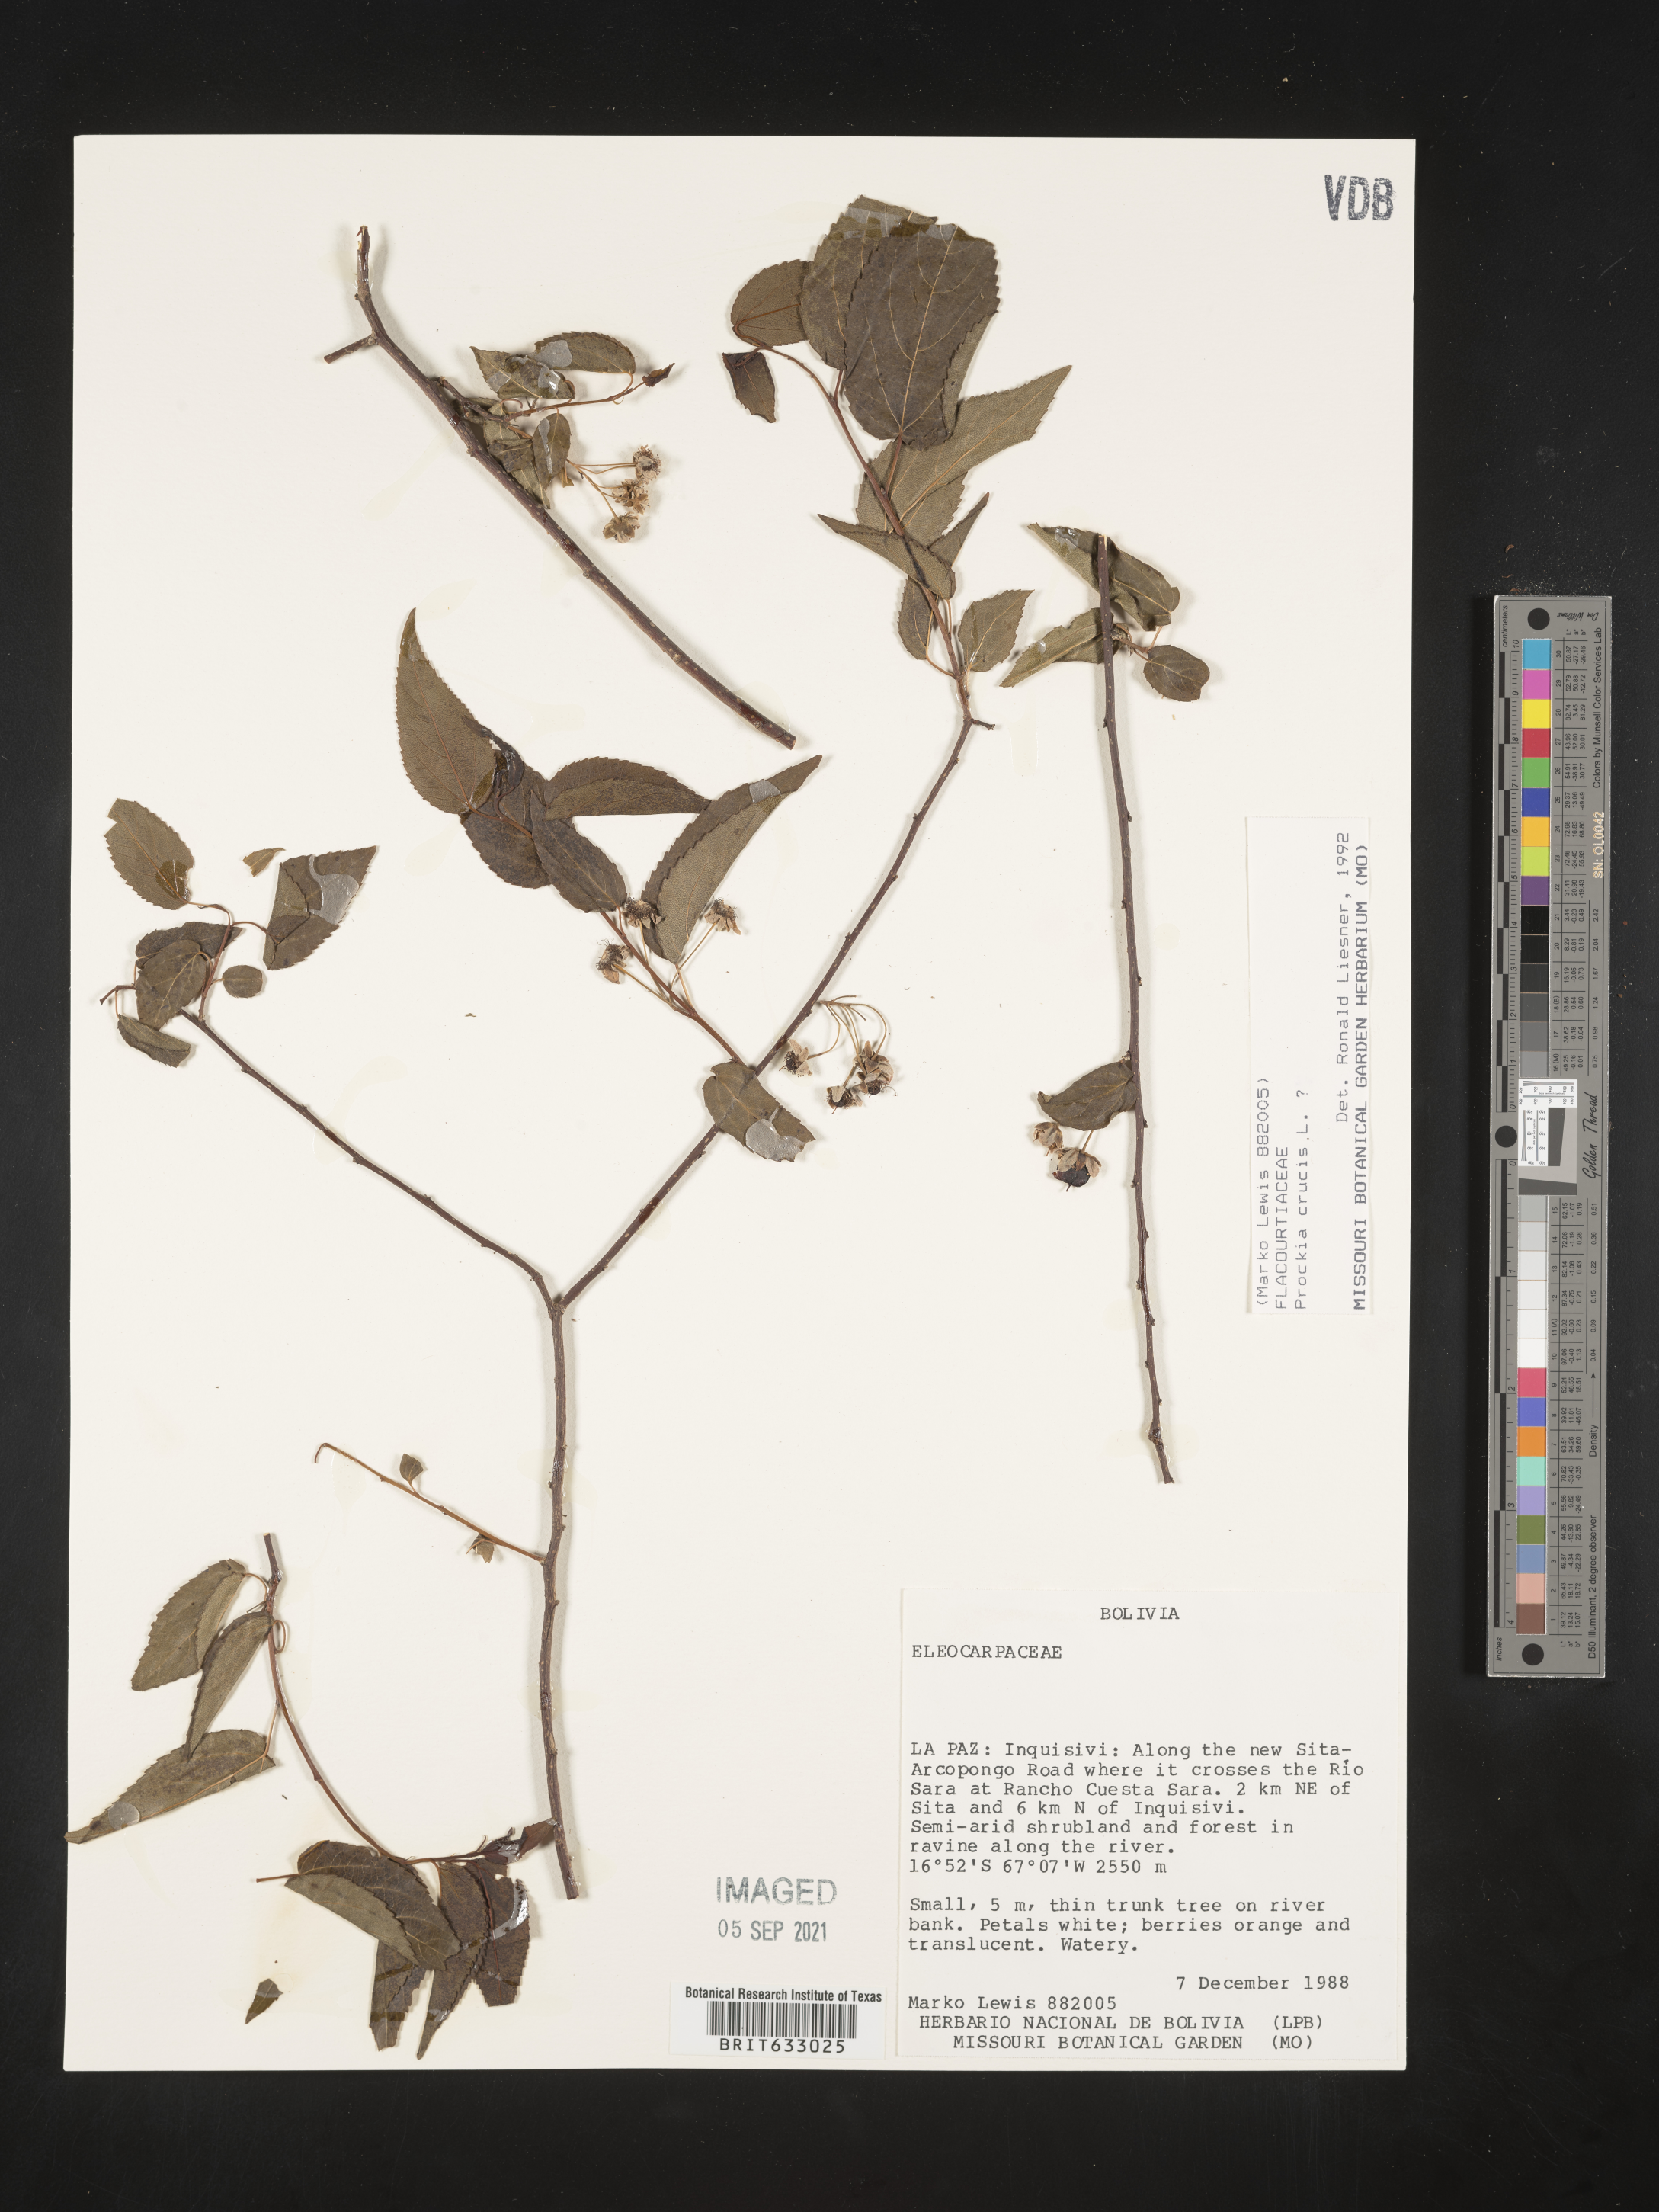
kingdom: Plantae
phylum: Tracheophyta
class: Magnoliopsida
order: Malpighiales
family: Salicaceae
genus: Prockia
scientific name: Prockia
